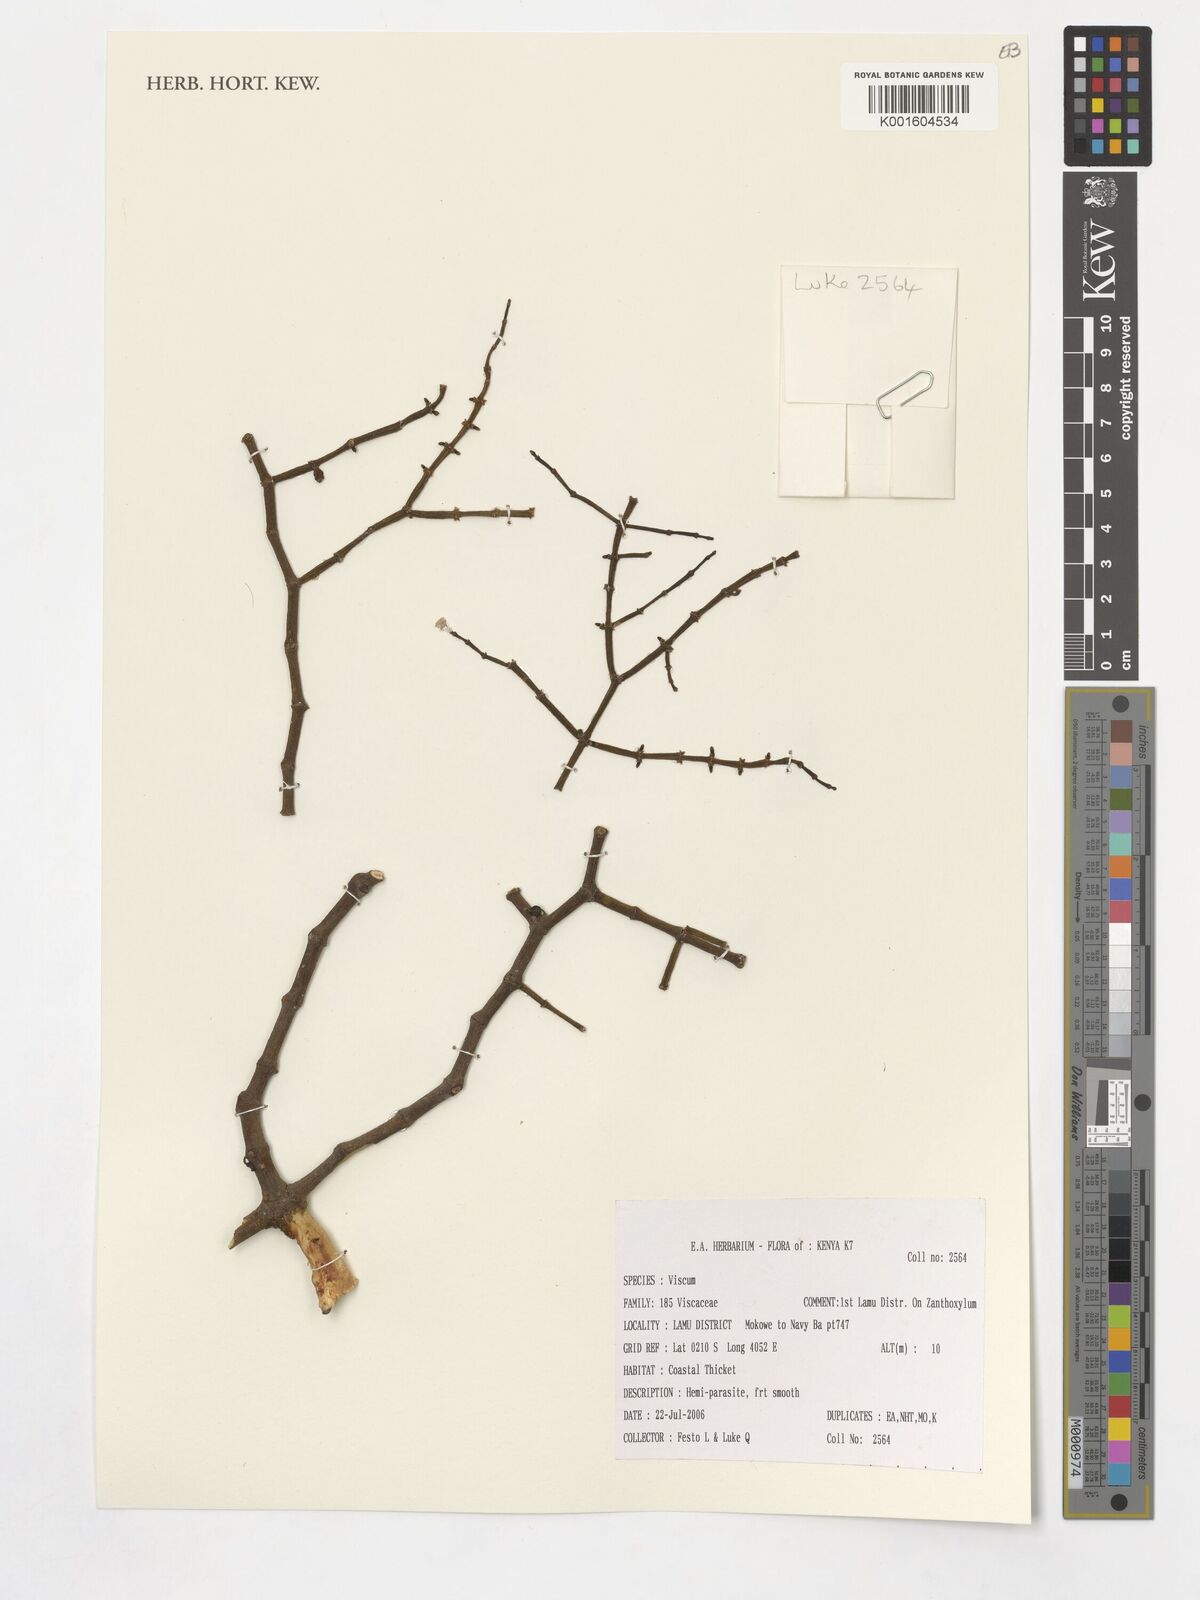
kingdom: Plantae
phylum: Tracheophyta
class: Magnoliopsida
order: Santalales
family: Viscaceae
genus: Viscum
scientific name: Viscum
